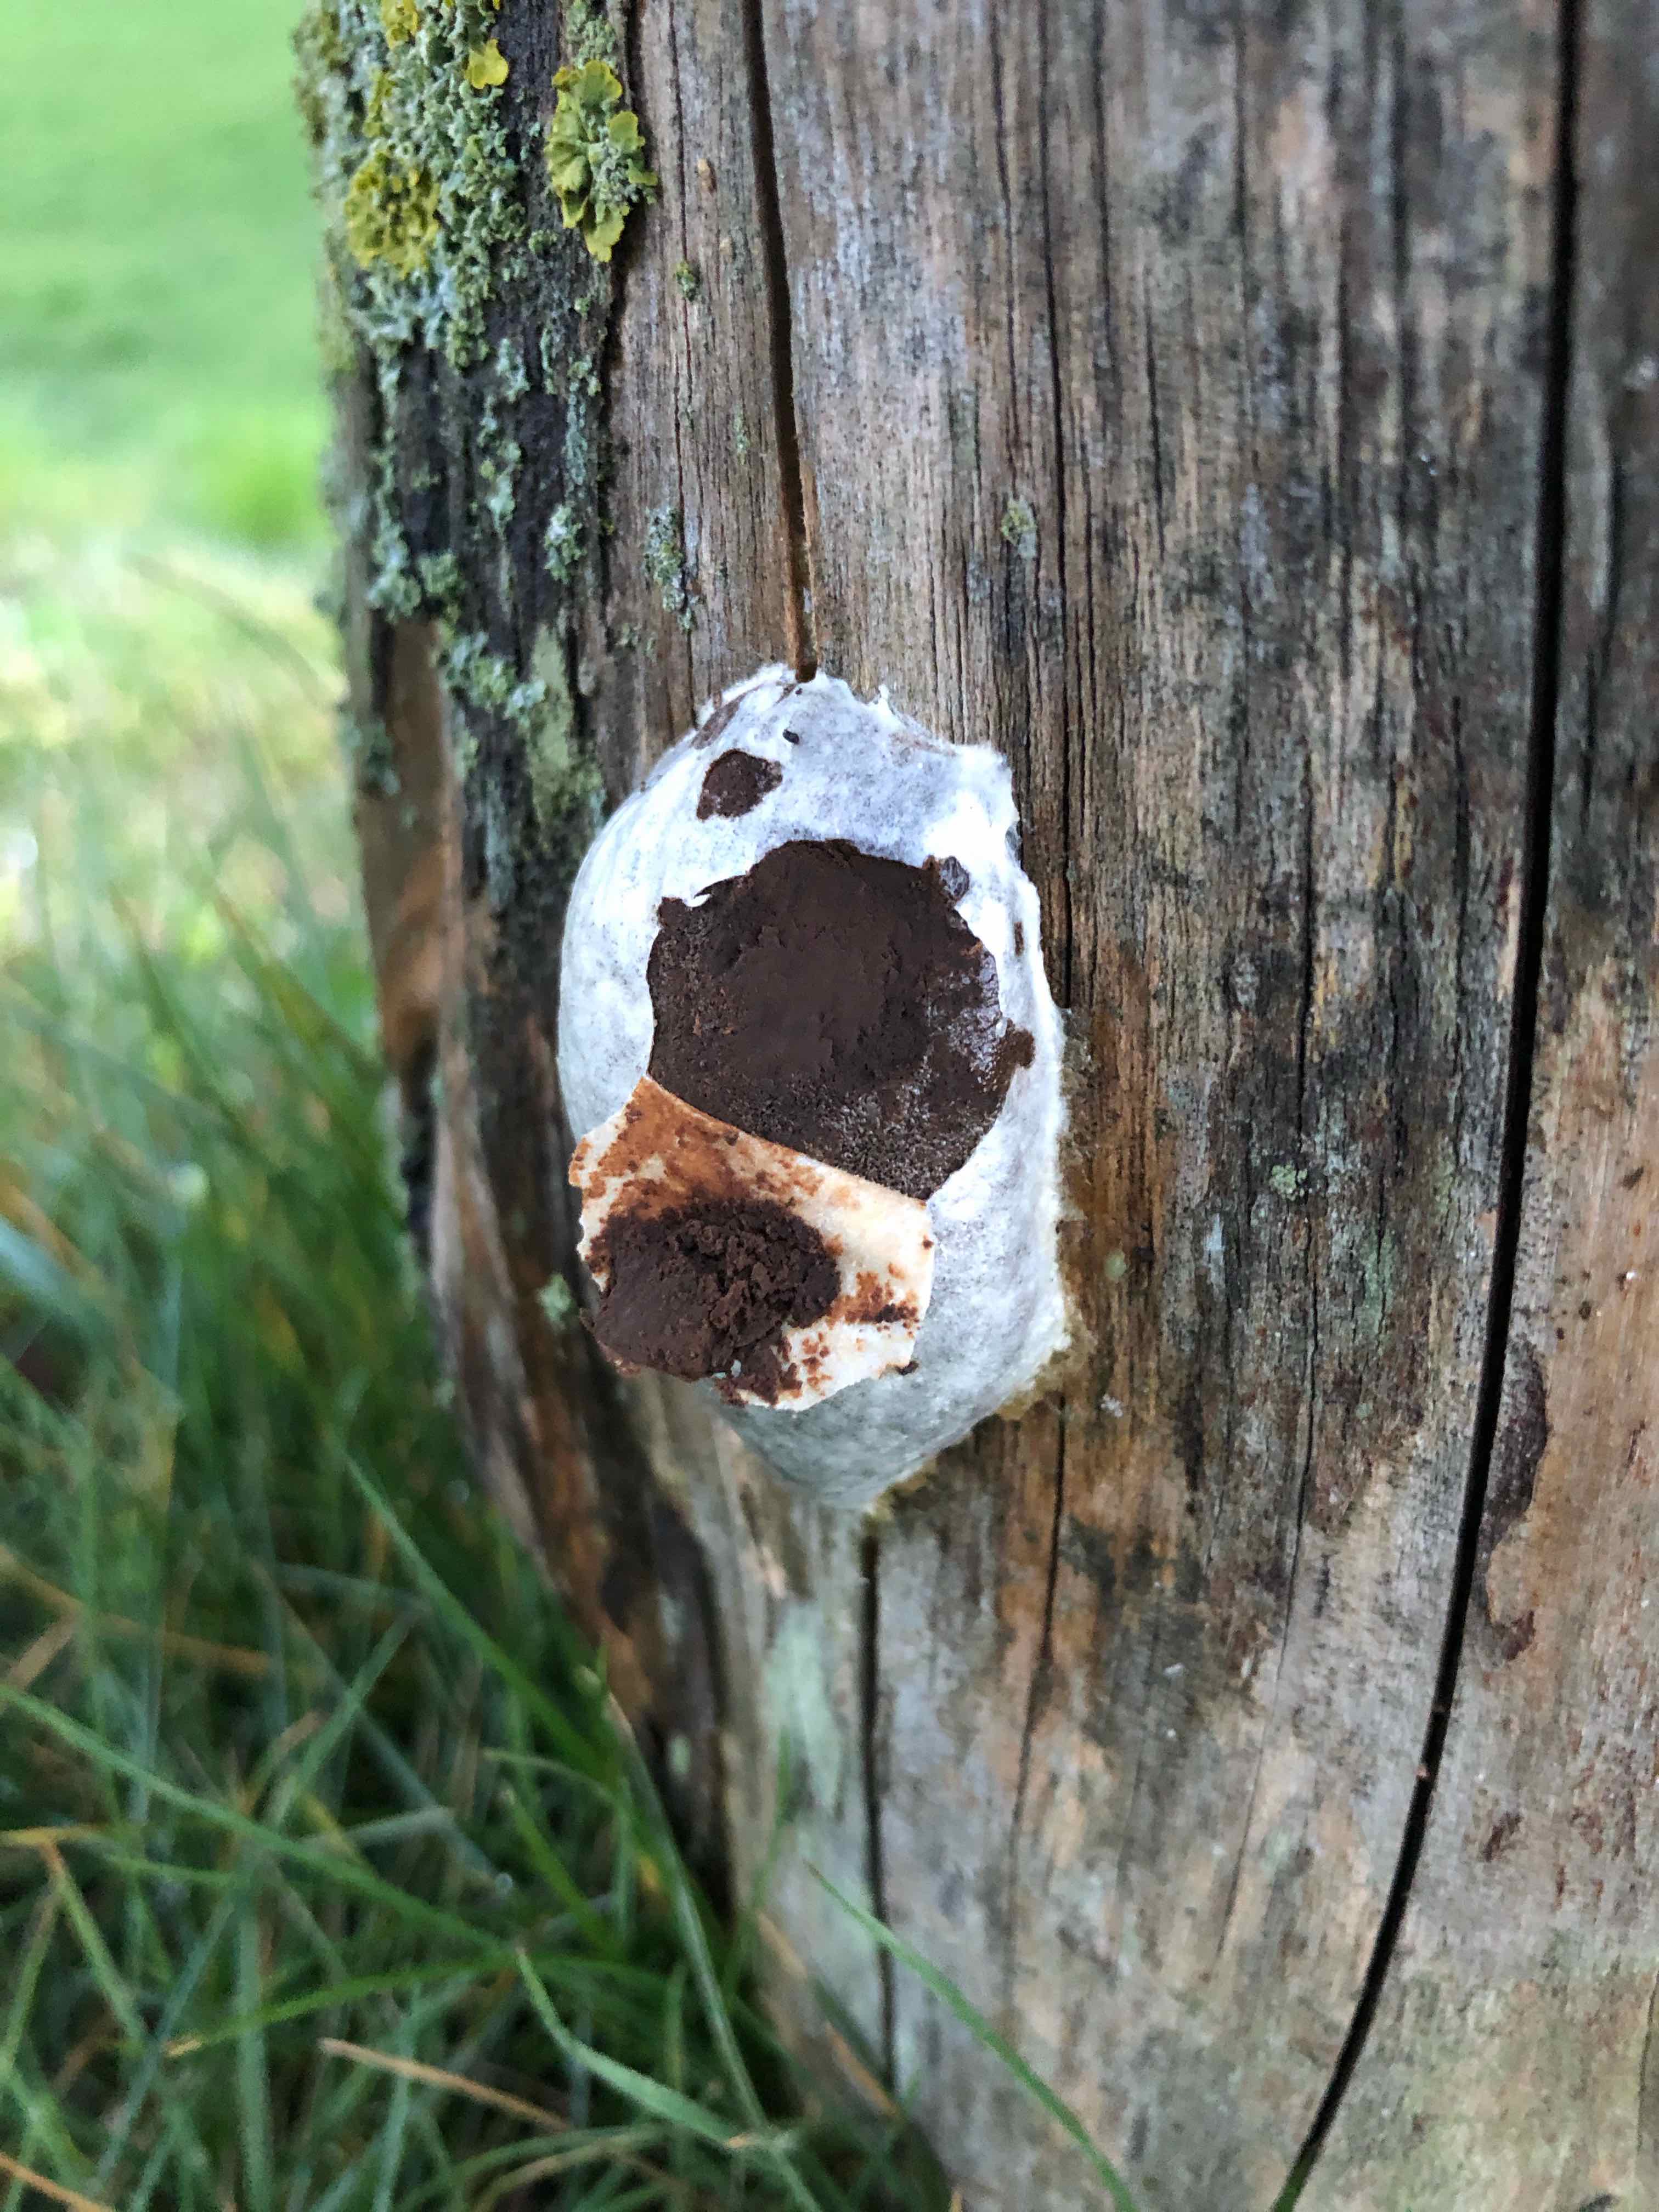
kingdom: Protozoa
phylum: Mycetozoa
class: Myxomycetes
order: Cribrariales
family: Tubiferaceae
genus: Reticularia
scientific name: Reticularia lycoperdon
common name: skinnende støvpude
